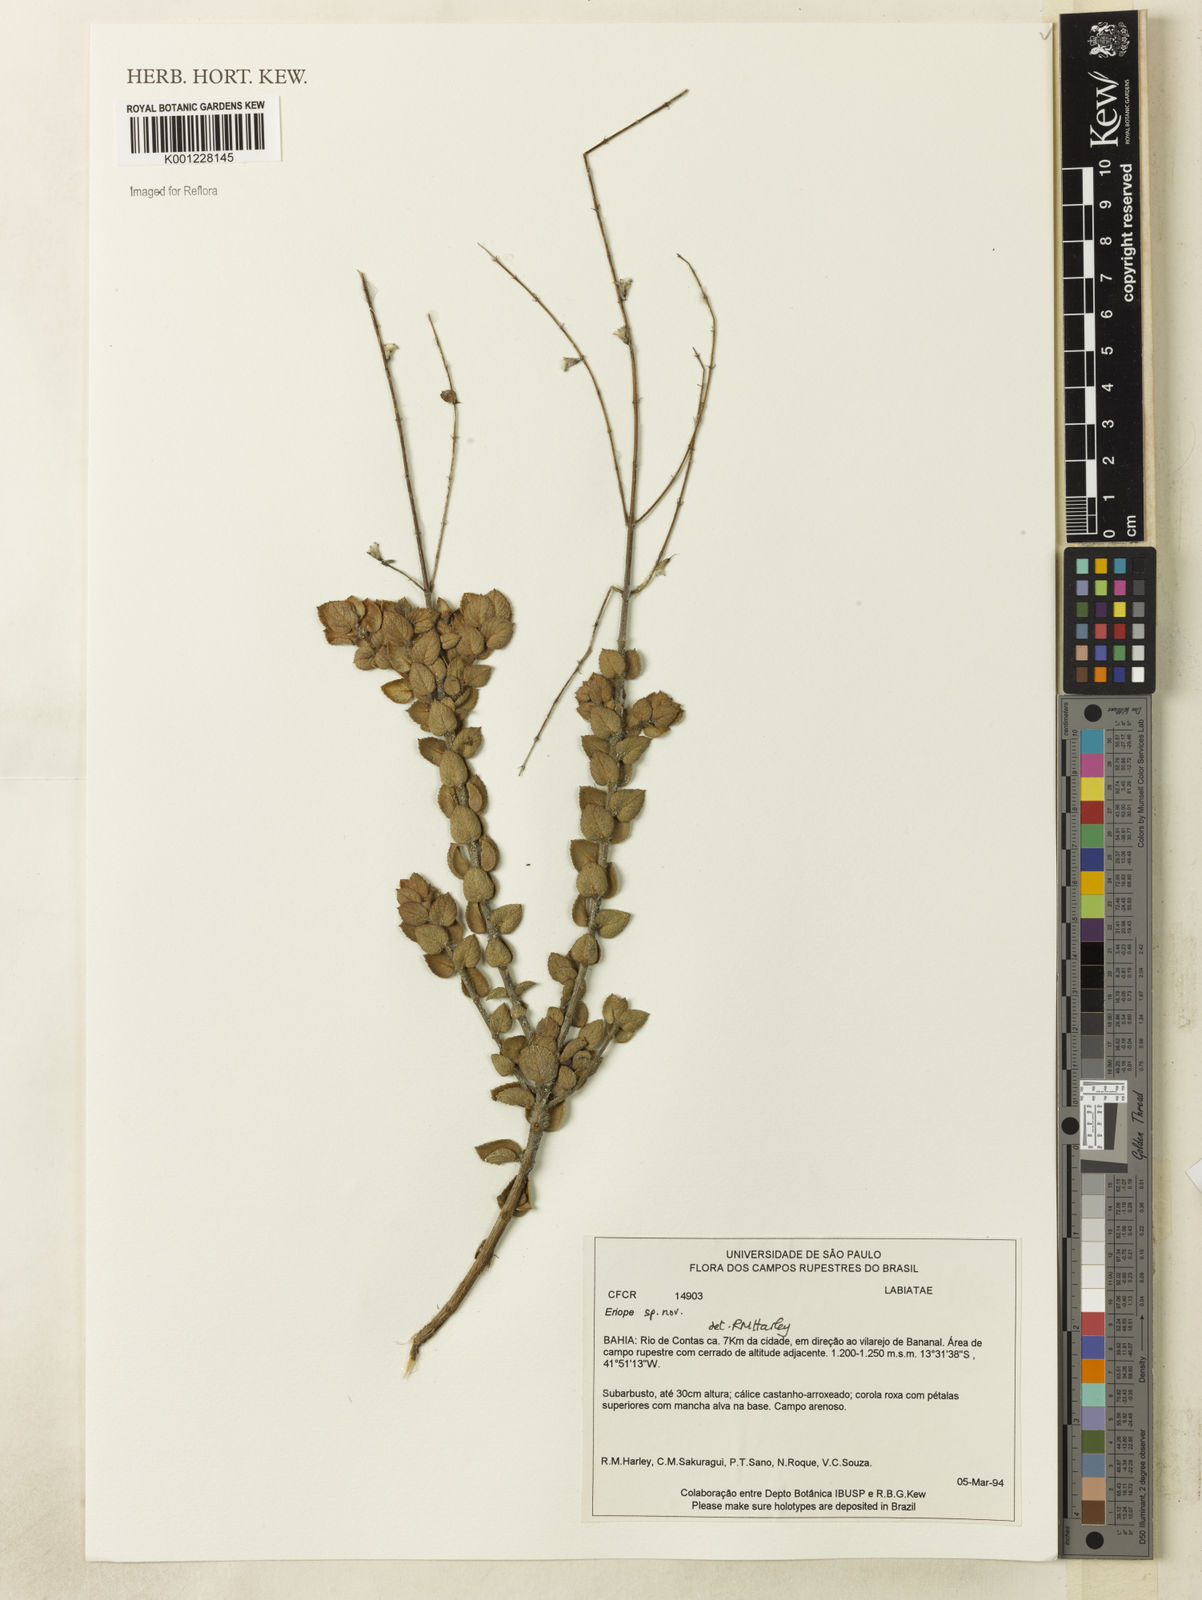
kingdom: Plantae
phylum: Tracheophyta
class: Magnoliopsida
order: Lamiales
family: Lamiaceae
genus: Eriope
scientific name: Eriope
